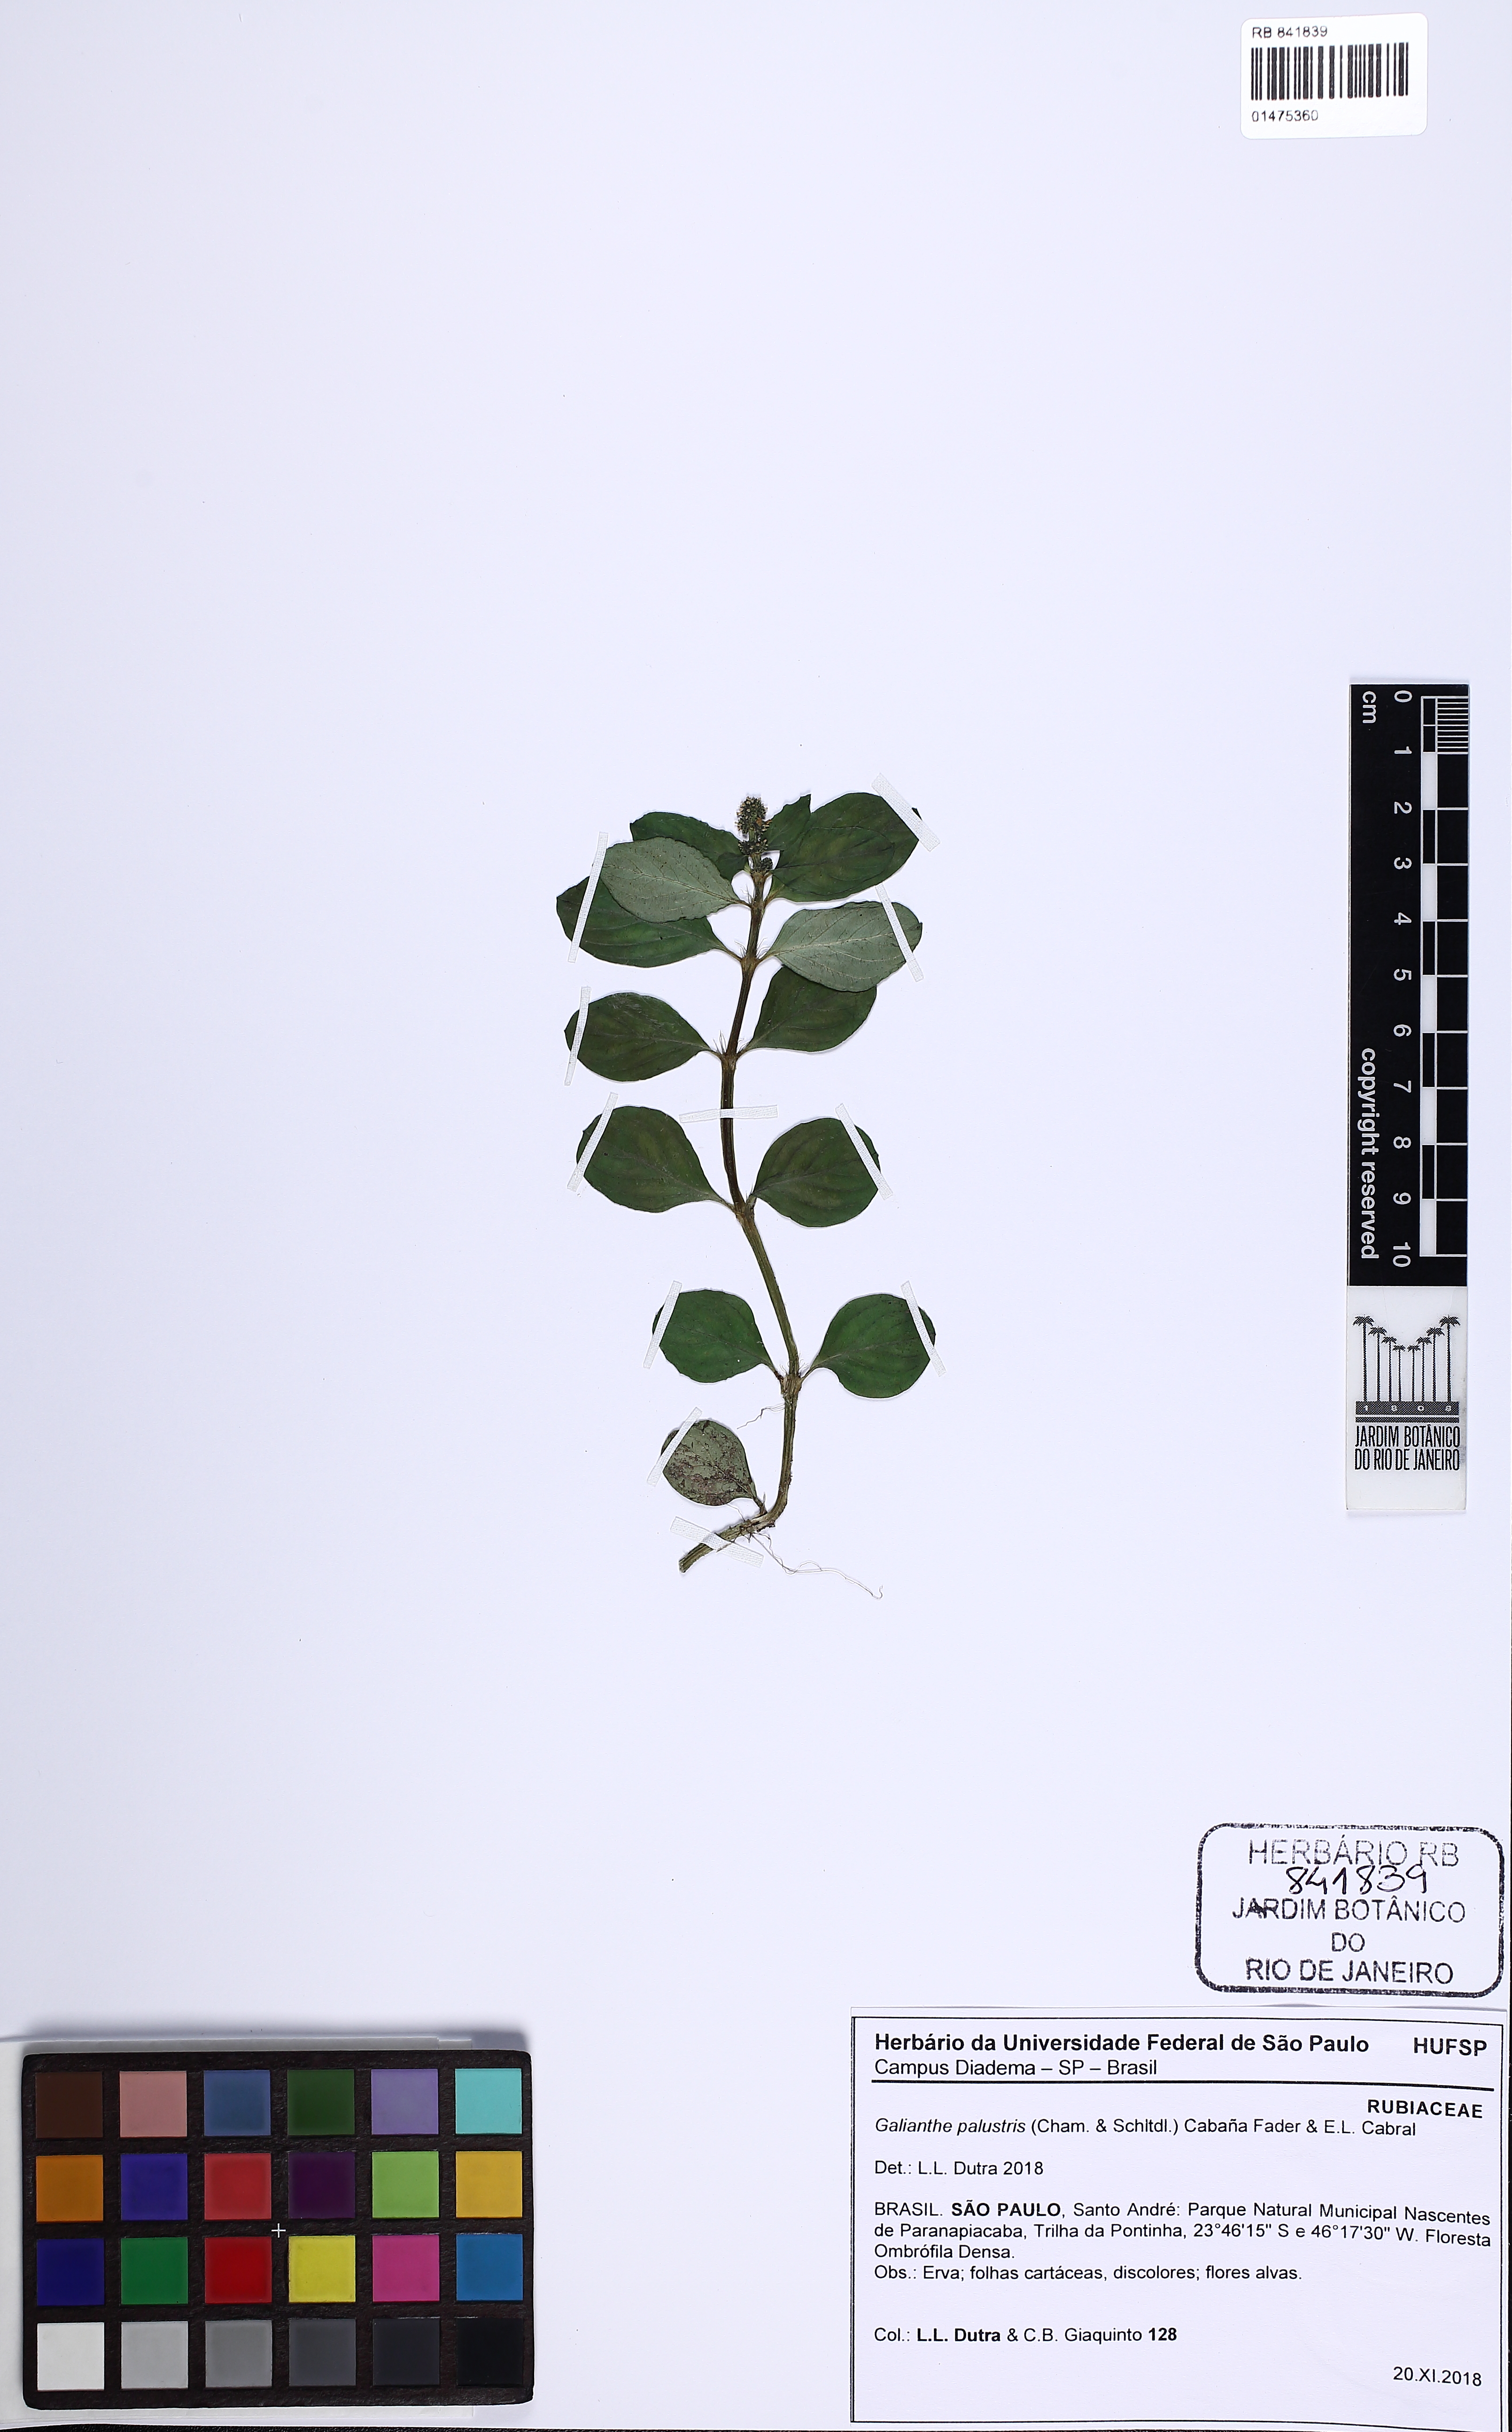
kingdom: Plantae
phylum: Tracheophyta
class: Magnoliopsida
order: Gentianales
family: Rubiaceae
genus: Galianthe
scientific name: Galianthe palustris
